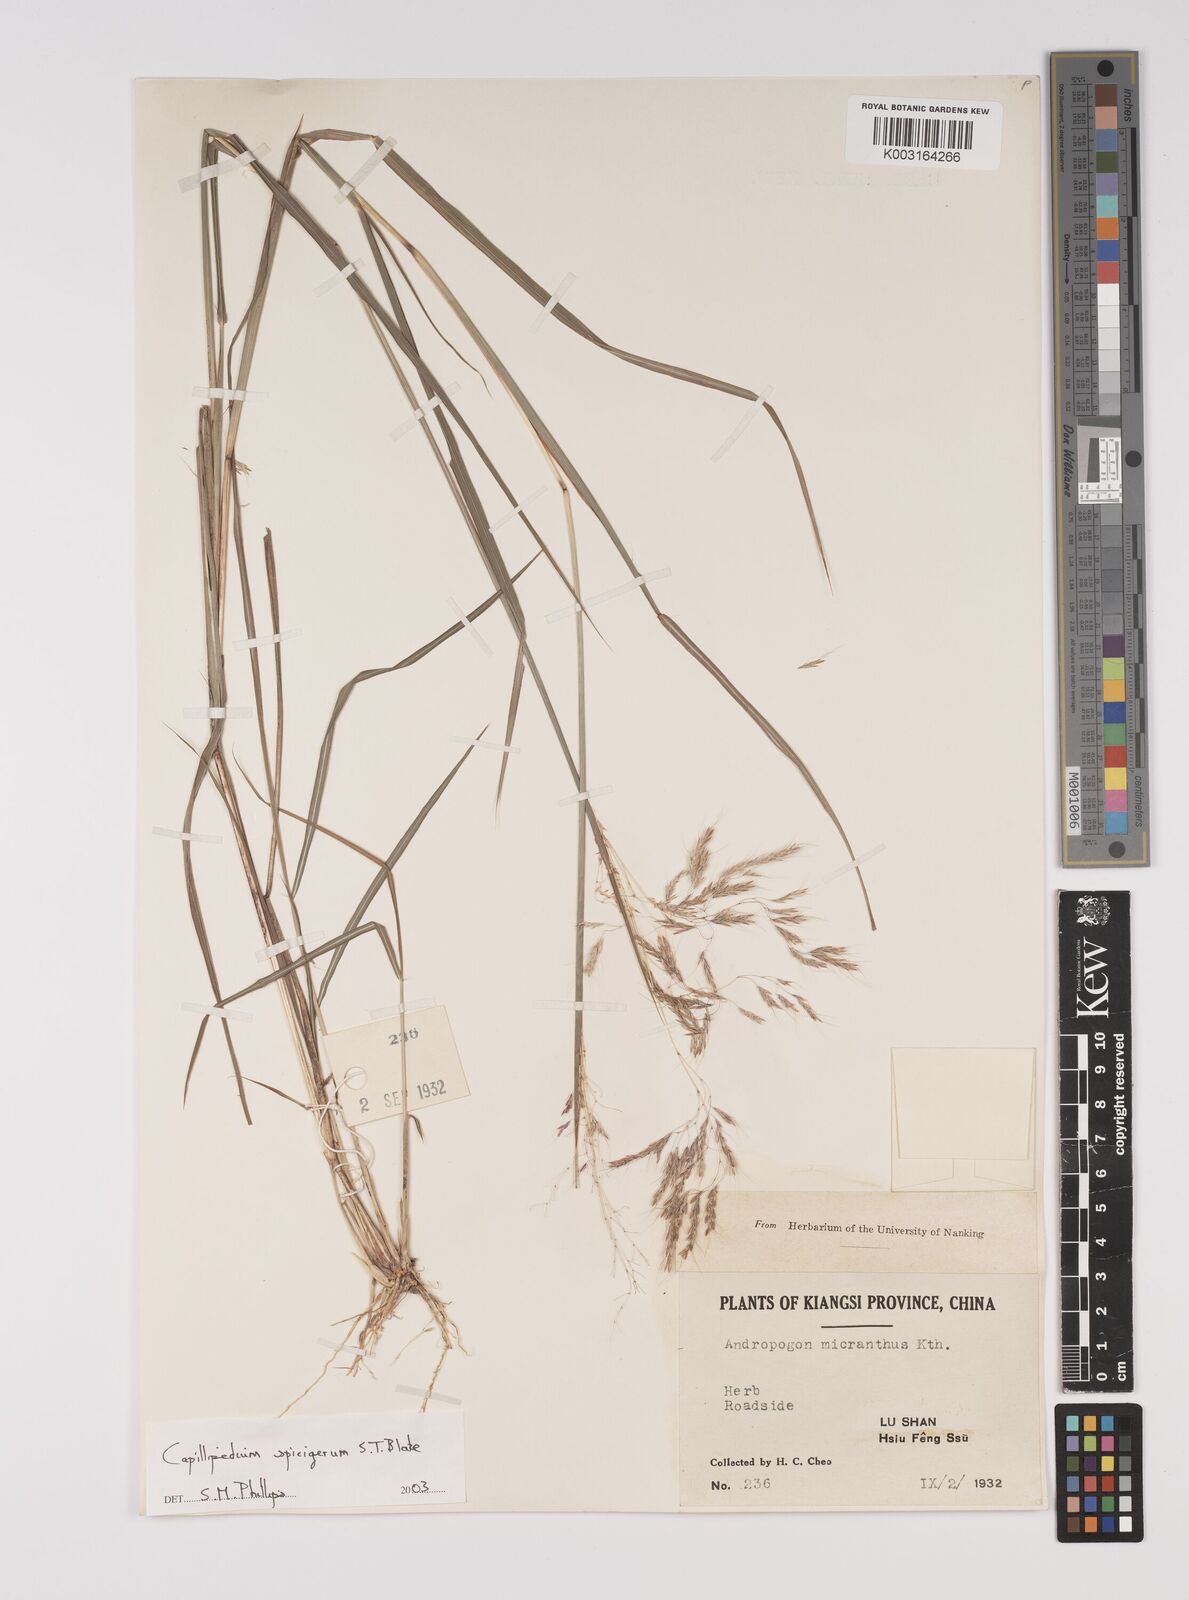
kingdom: Plantae
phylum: Tracheophyta
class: Liliopsida
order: Poales
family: Poaceae
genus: Capillipedium
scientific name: Capillipedium spicigerum
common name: Scented-top grass
